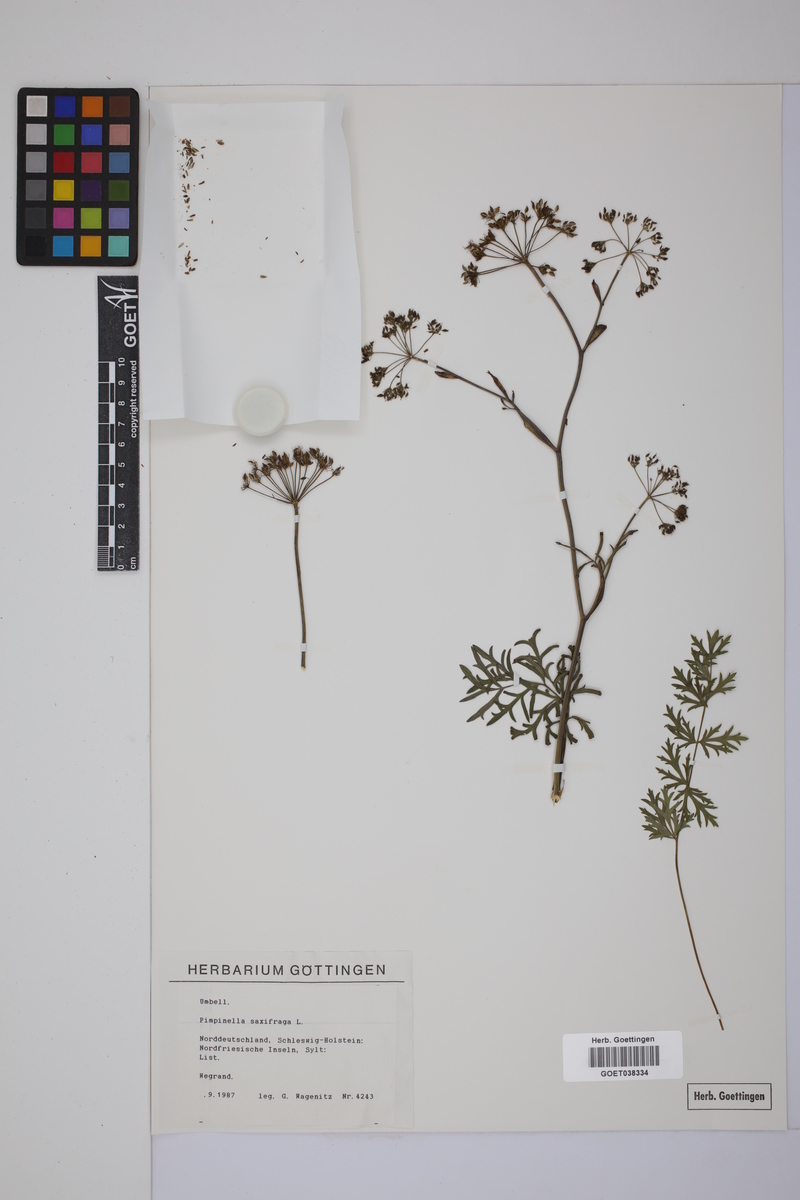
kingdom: Plantae
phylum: Tracheophyta
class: Magnoliopsida
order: Apiales
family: Apiaceae
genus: Pimpinella
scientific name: Pimpinella saxifraga
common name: Burnet-saxifrage
